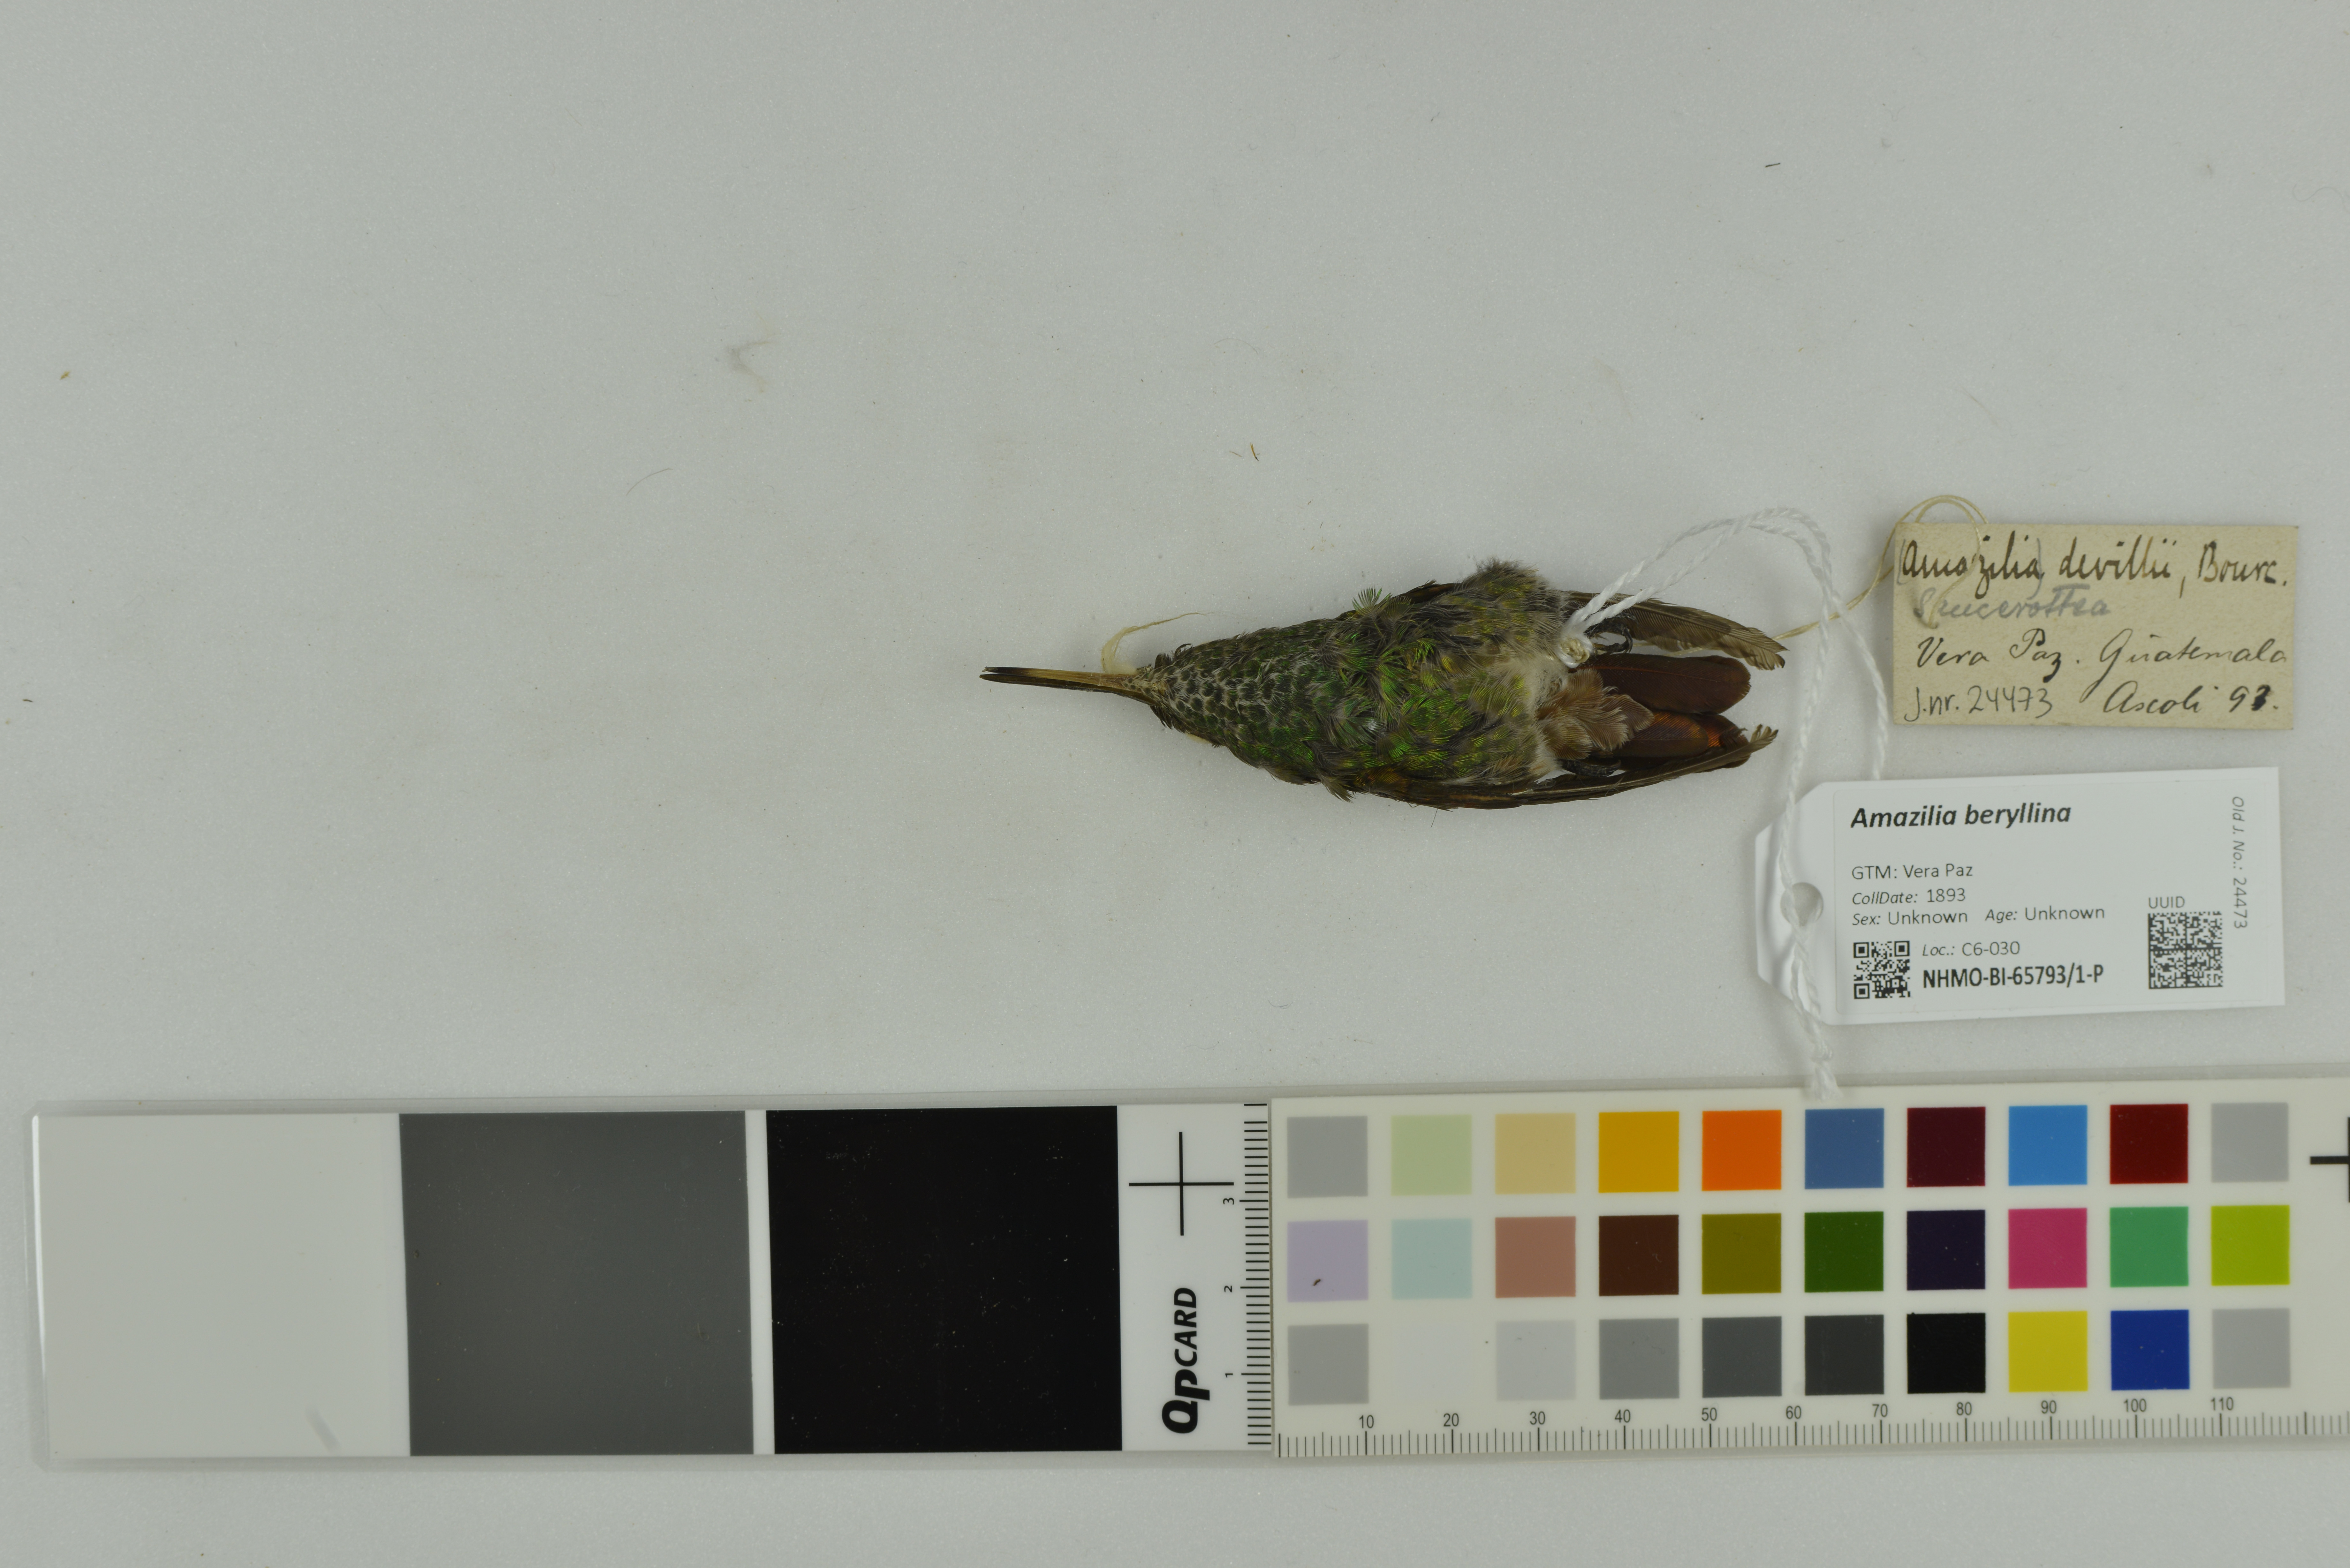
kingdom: Animalia
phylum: Chordata
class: Aves
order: Apodiformes
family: Trochilidae
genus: Saucerottia
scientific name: Saucerottia beryllina
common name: Berylline hummingbird
